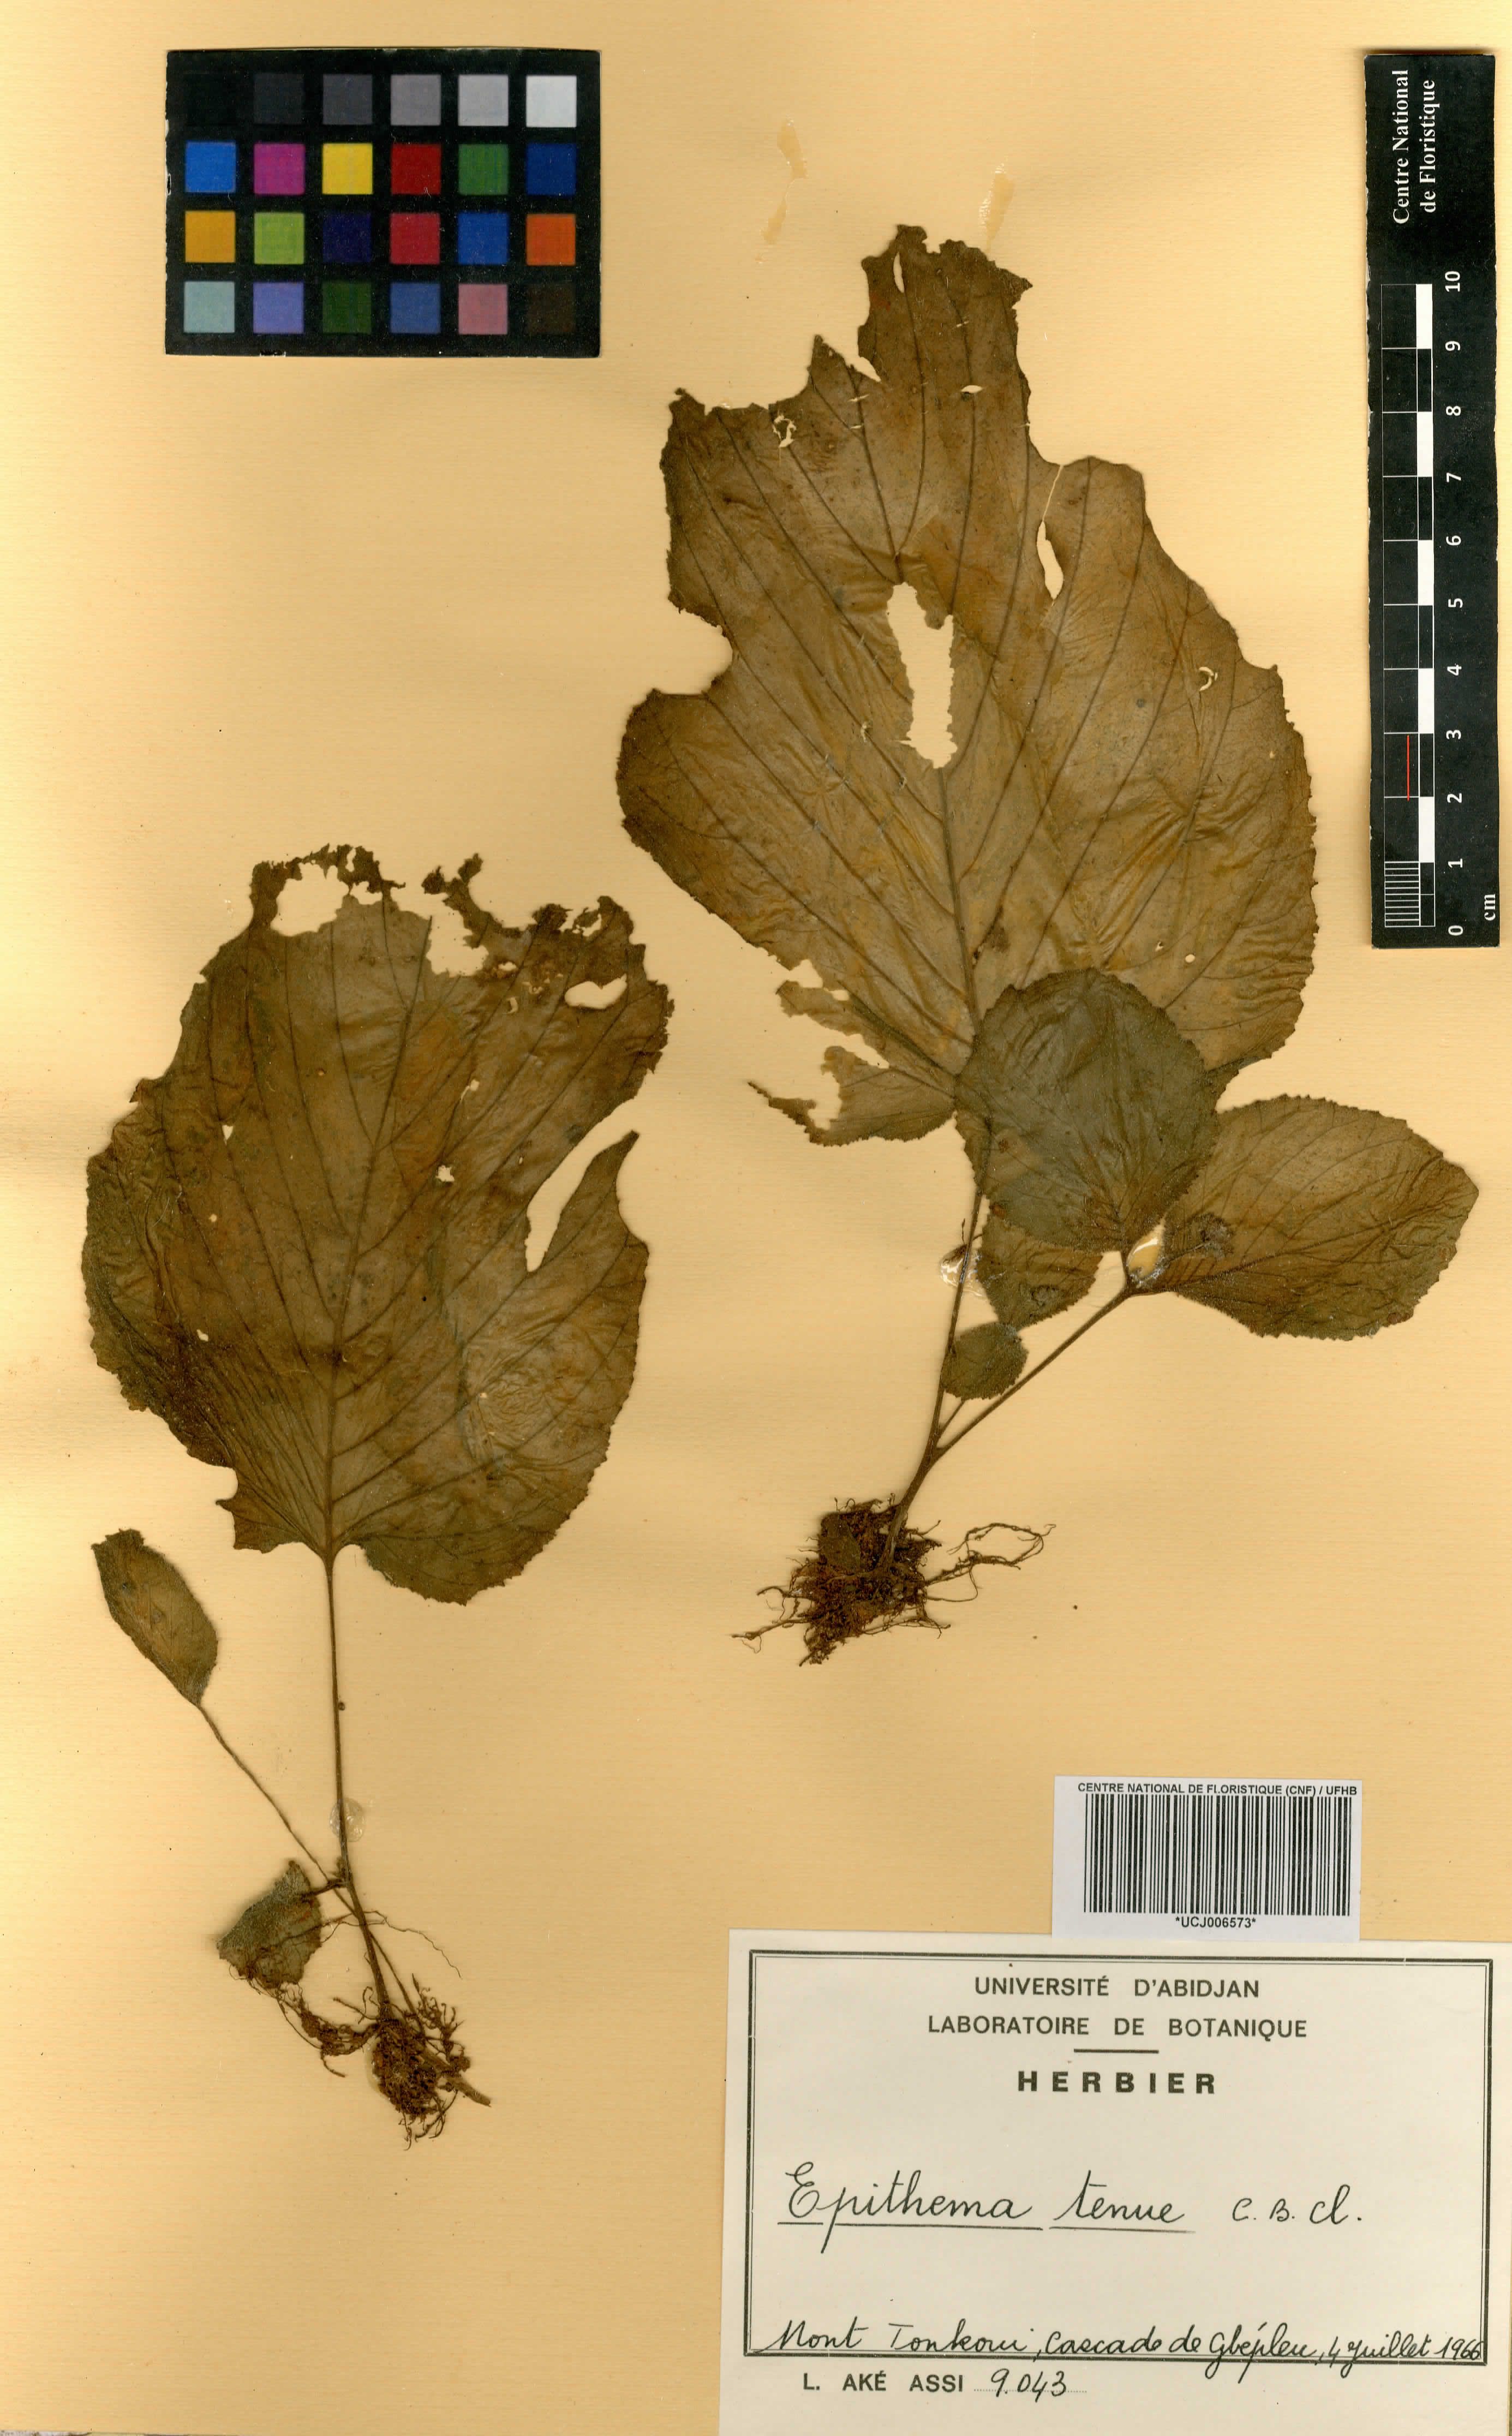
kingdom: Plantae
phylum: Tracheophyta
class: Magnoliopsida
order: Lamiales
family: Gesneriaceae
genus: Epithema
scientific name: Epithema tenue
